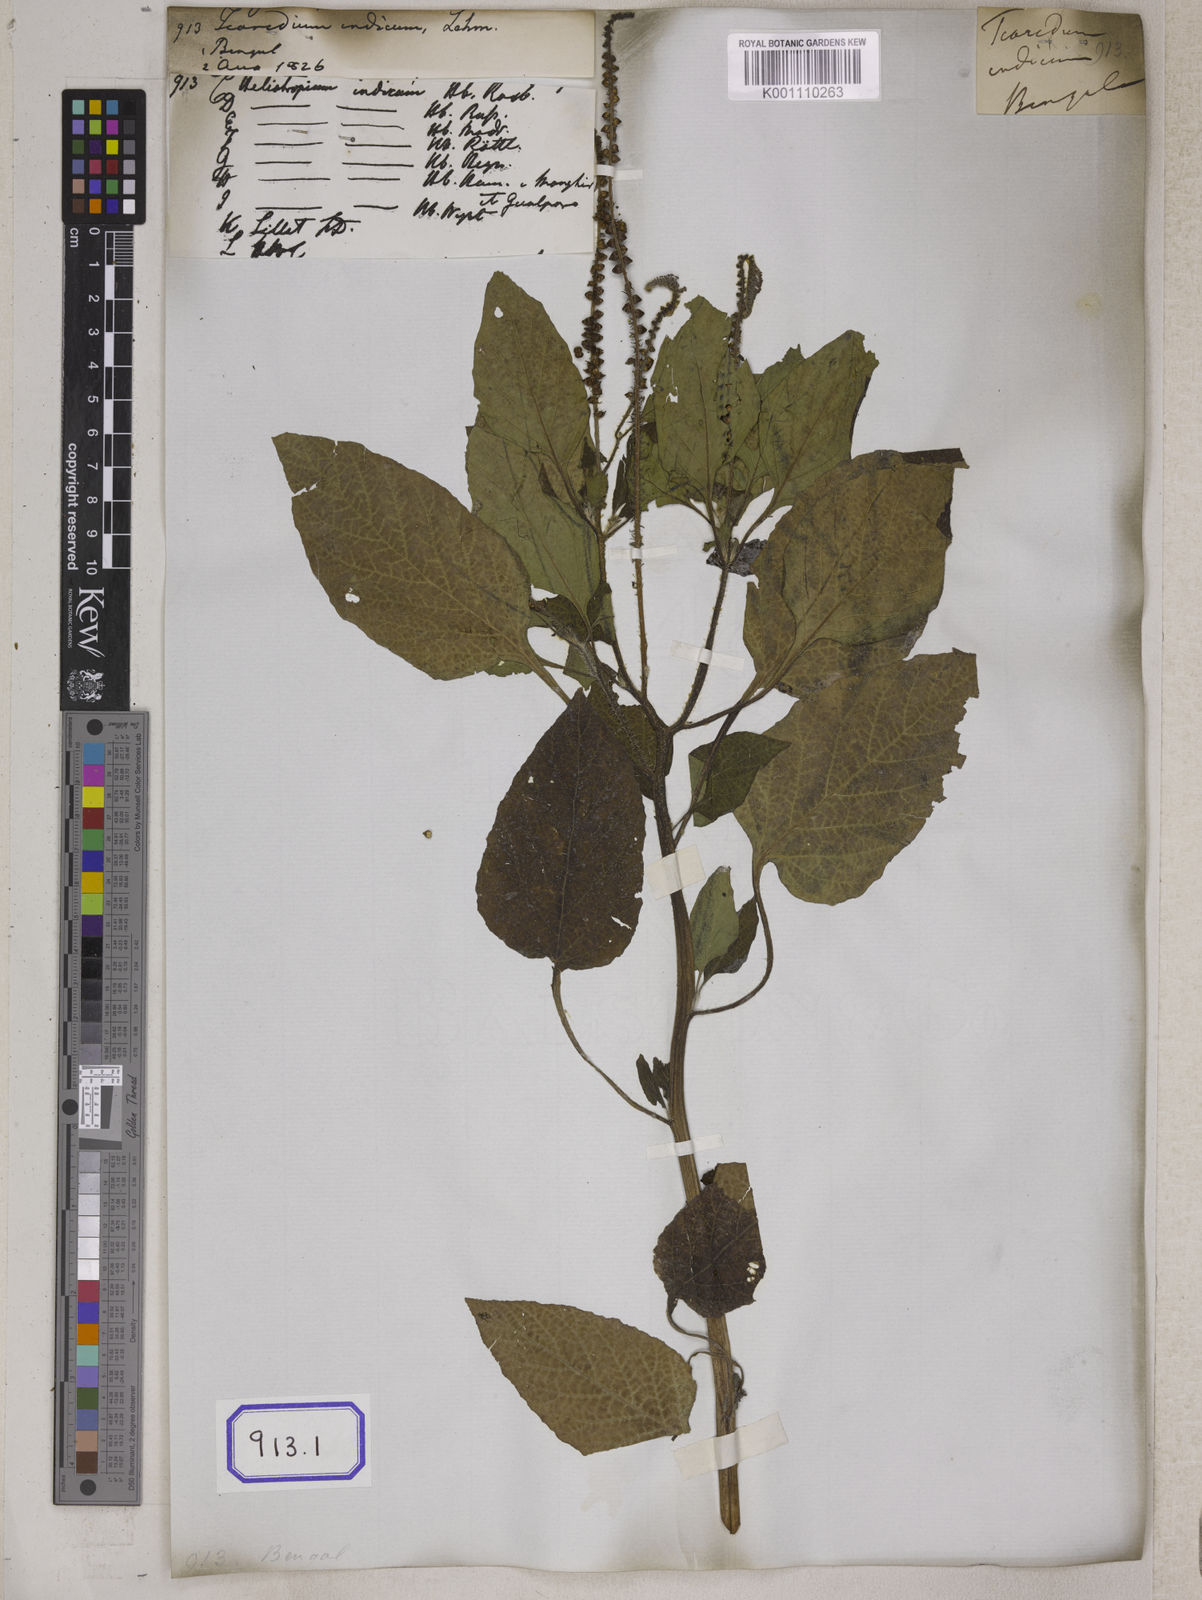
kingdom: Plantae
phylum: Tracheophyta
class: Magnoliopsida
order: Boraginales
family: Heliotropiaceae
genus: Heliotropium
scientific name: Heliotropium indicum
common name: Indian heliotrope
